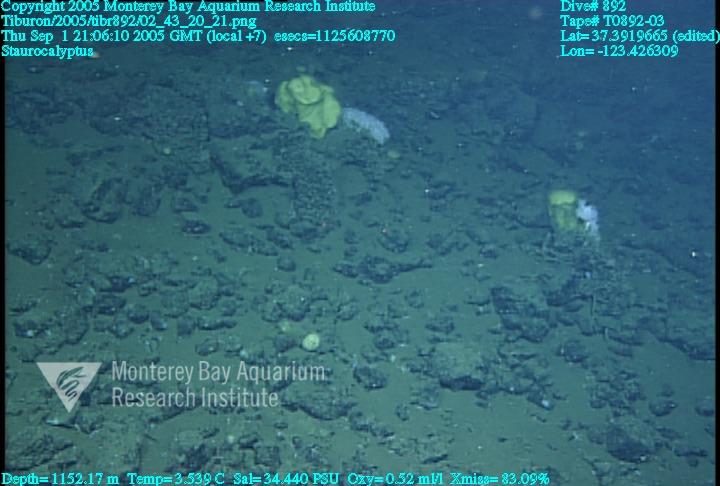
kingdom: Animalia
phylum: Porifera
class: Hexactinellida
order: Lyssacinosida
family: Rossellidae
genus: Staurocalyptus
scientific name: Staurocalyptus
